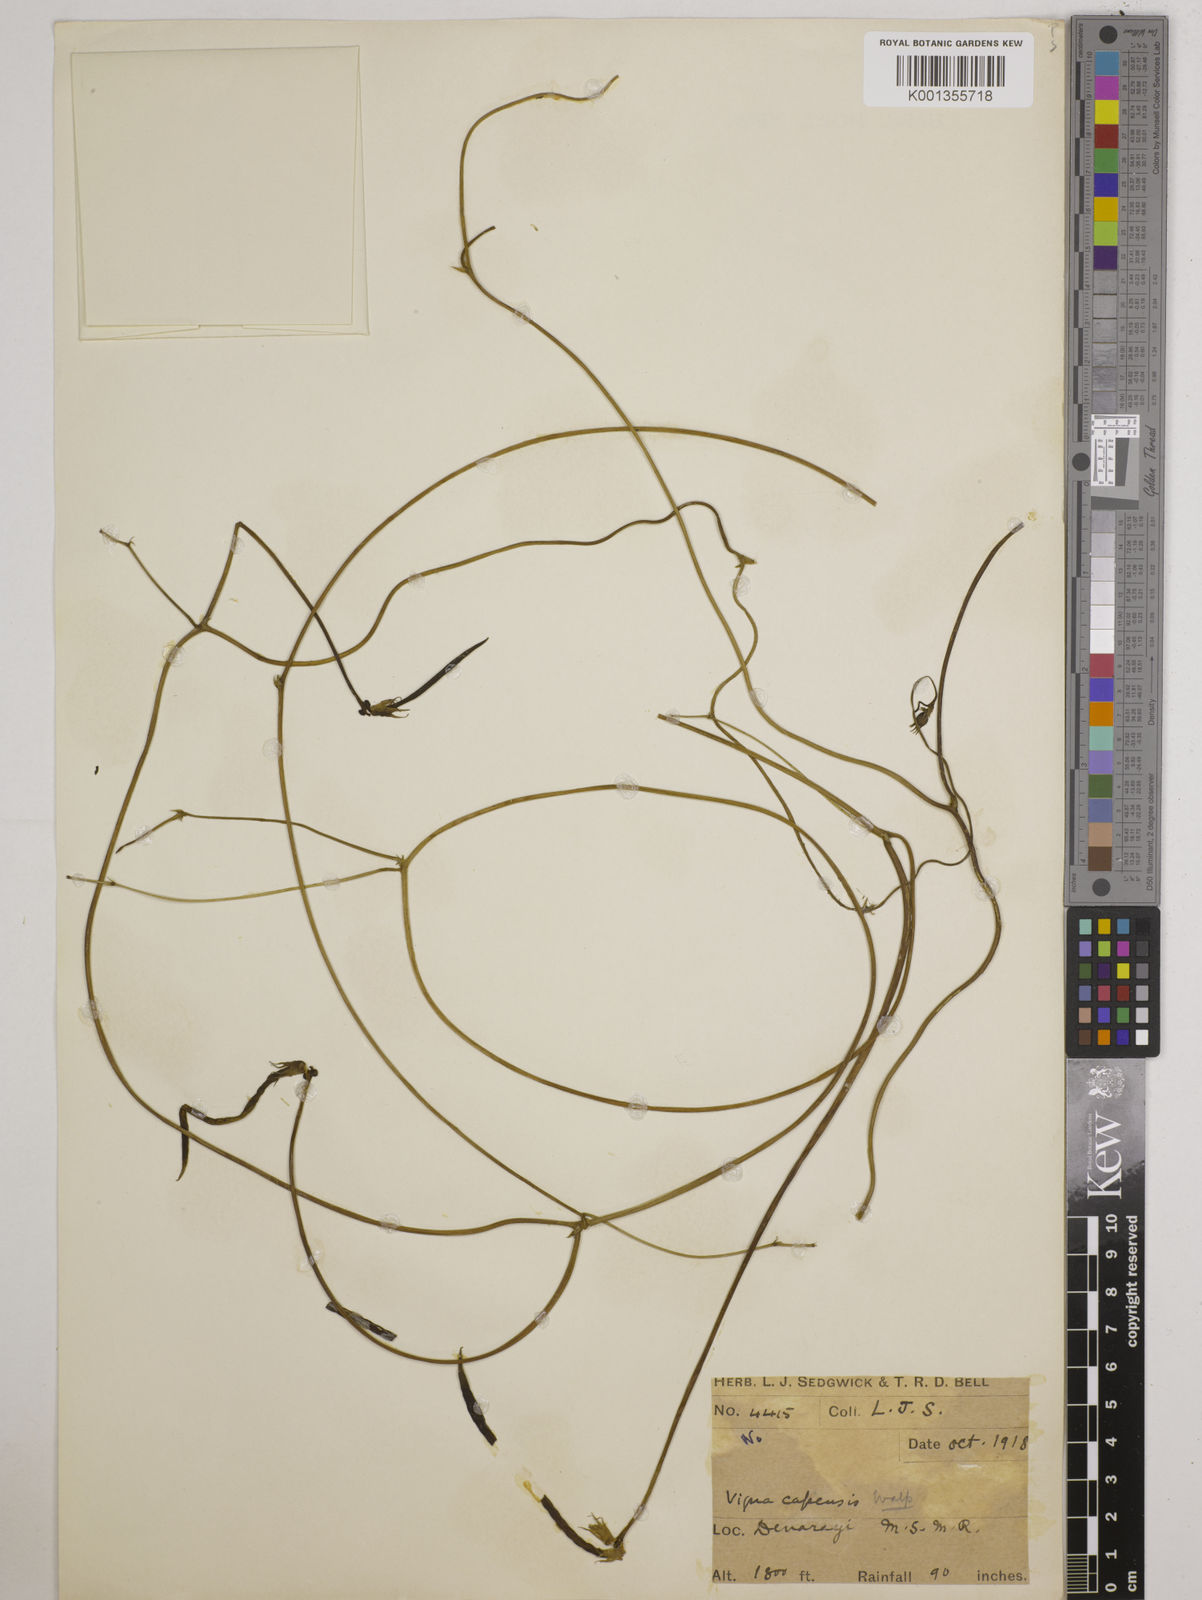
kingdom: Plantae
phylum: Tracheophyta
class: Magnoliopsida
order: Fabales
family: Fabaceae
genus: Vigna
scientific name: Vigna vexillata
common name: Zombi pea
